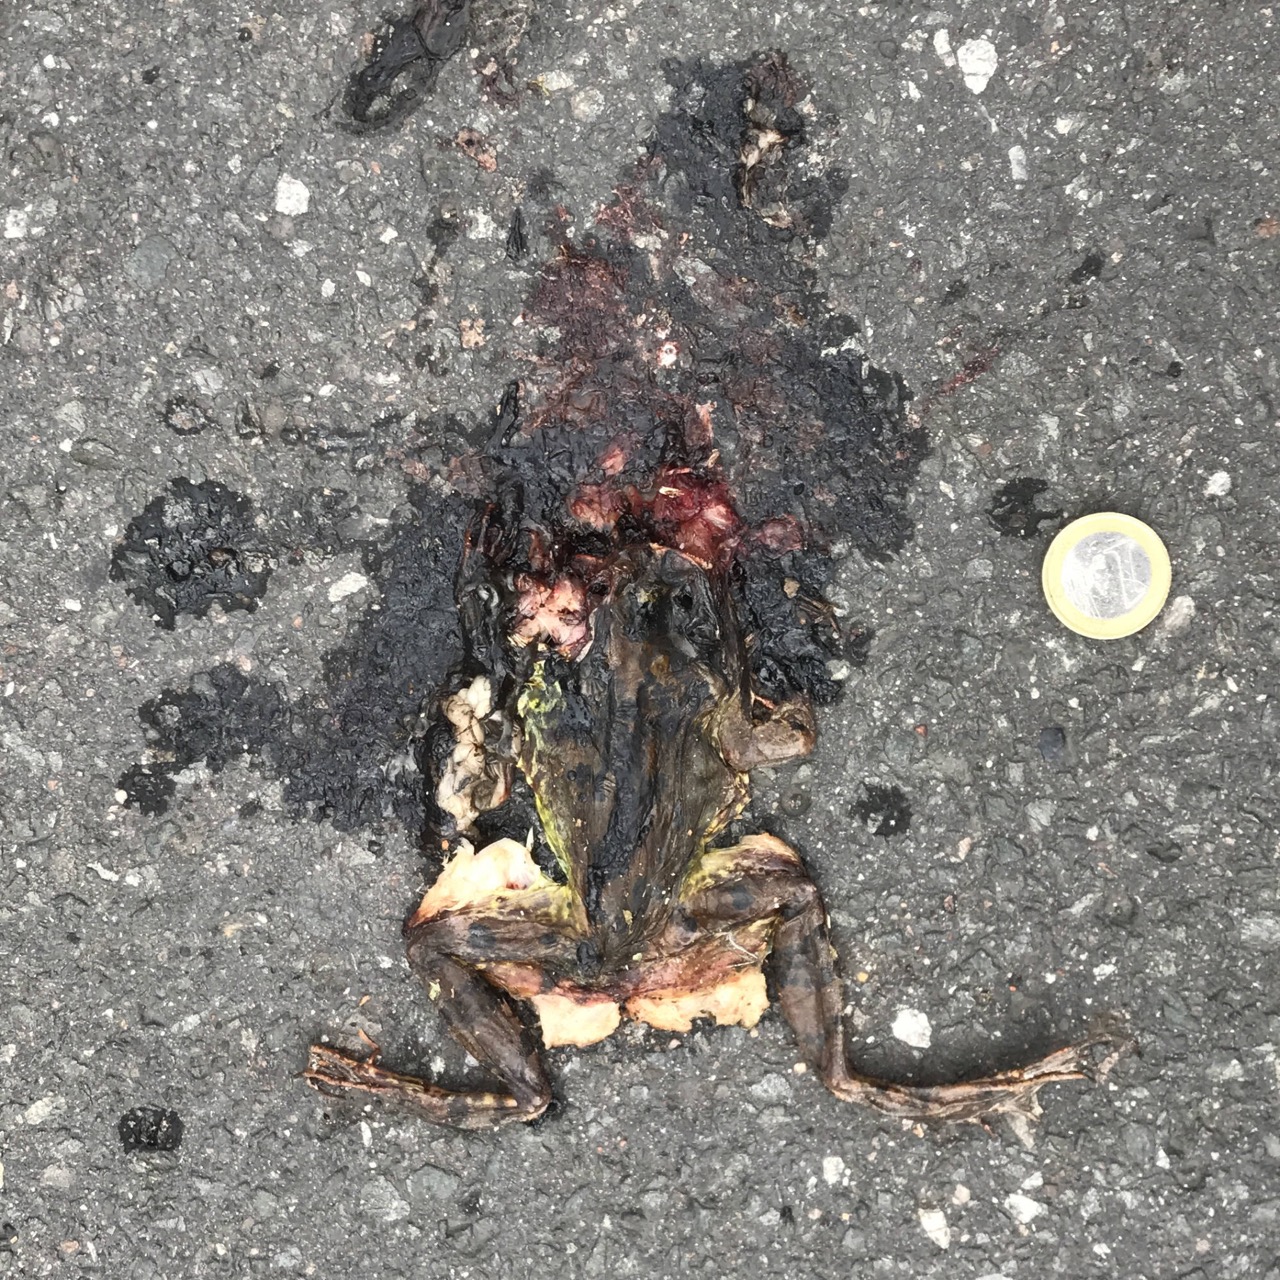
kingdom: Animalia
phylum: Chordata
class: Amphibia
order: Anura
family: Ranidae
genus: Pelophylax
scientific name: Pelophylax
